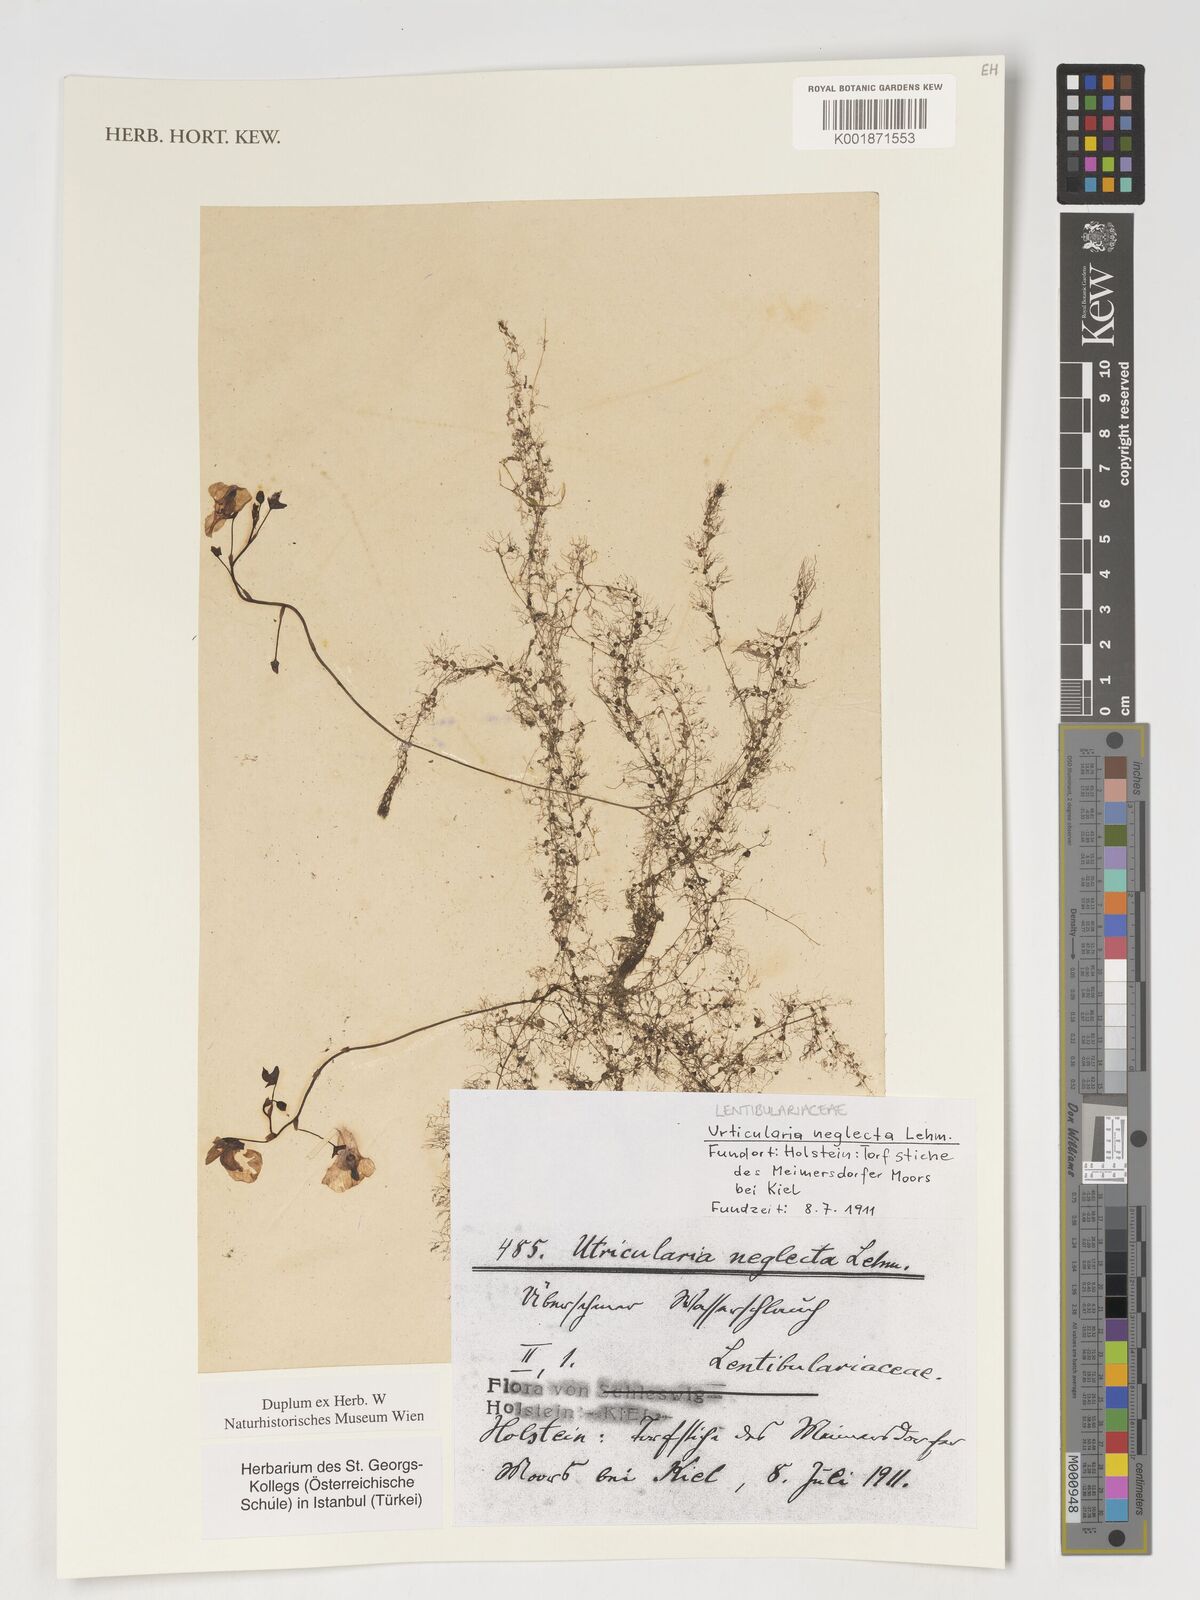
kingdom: Plantae
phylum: Tracheophyta
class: Magnoliopsida
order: Lamiales
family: Lentibulariaceae
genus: Utricularia
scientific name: Utricularia neglecta
